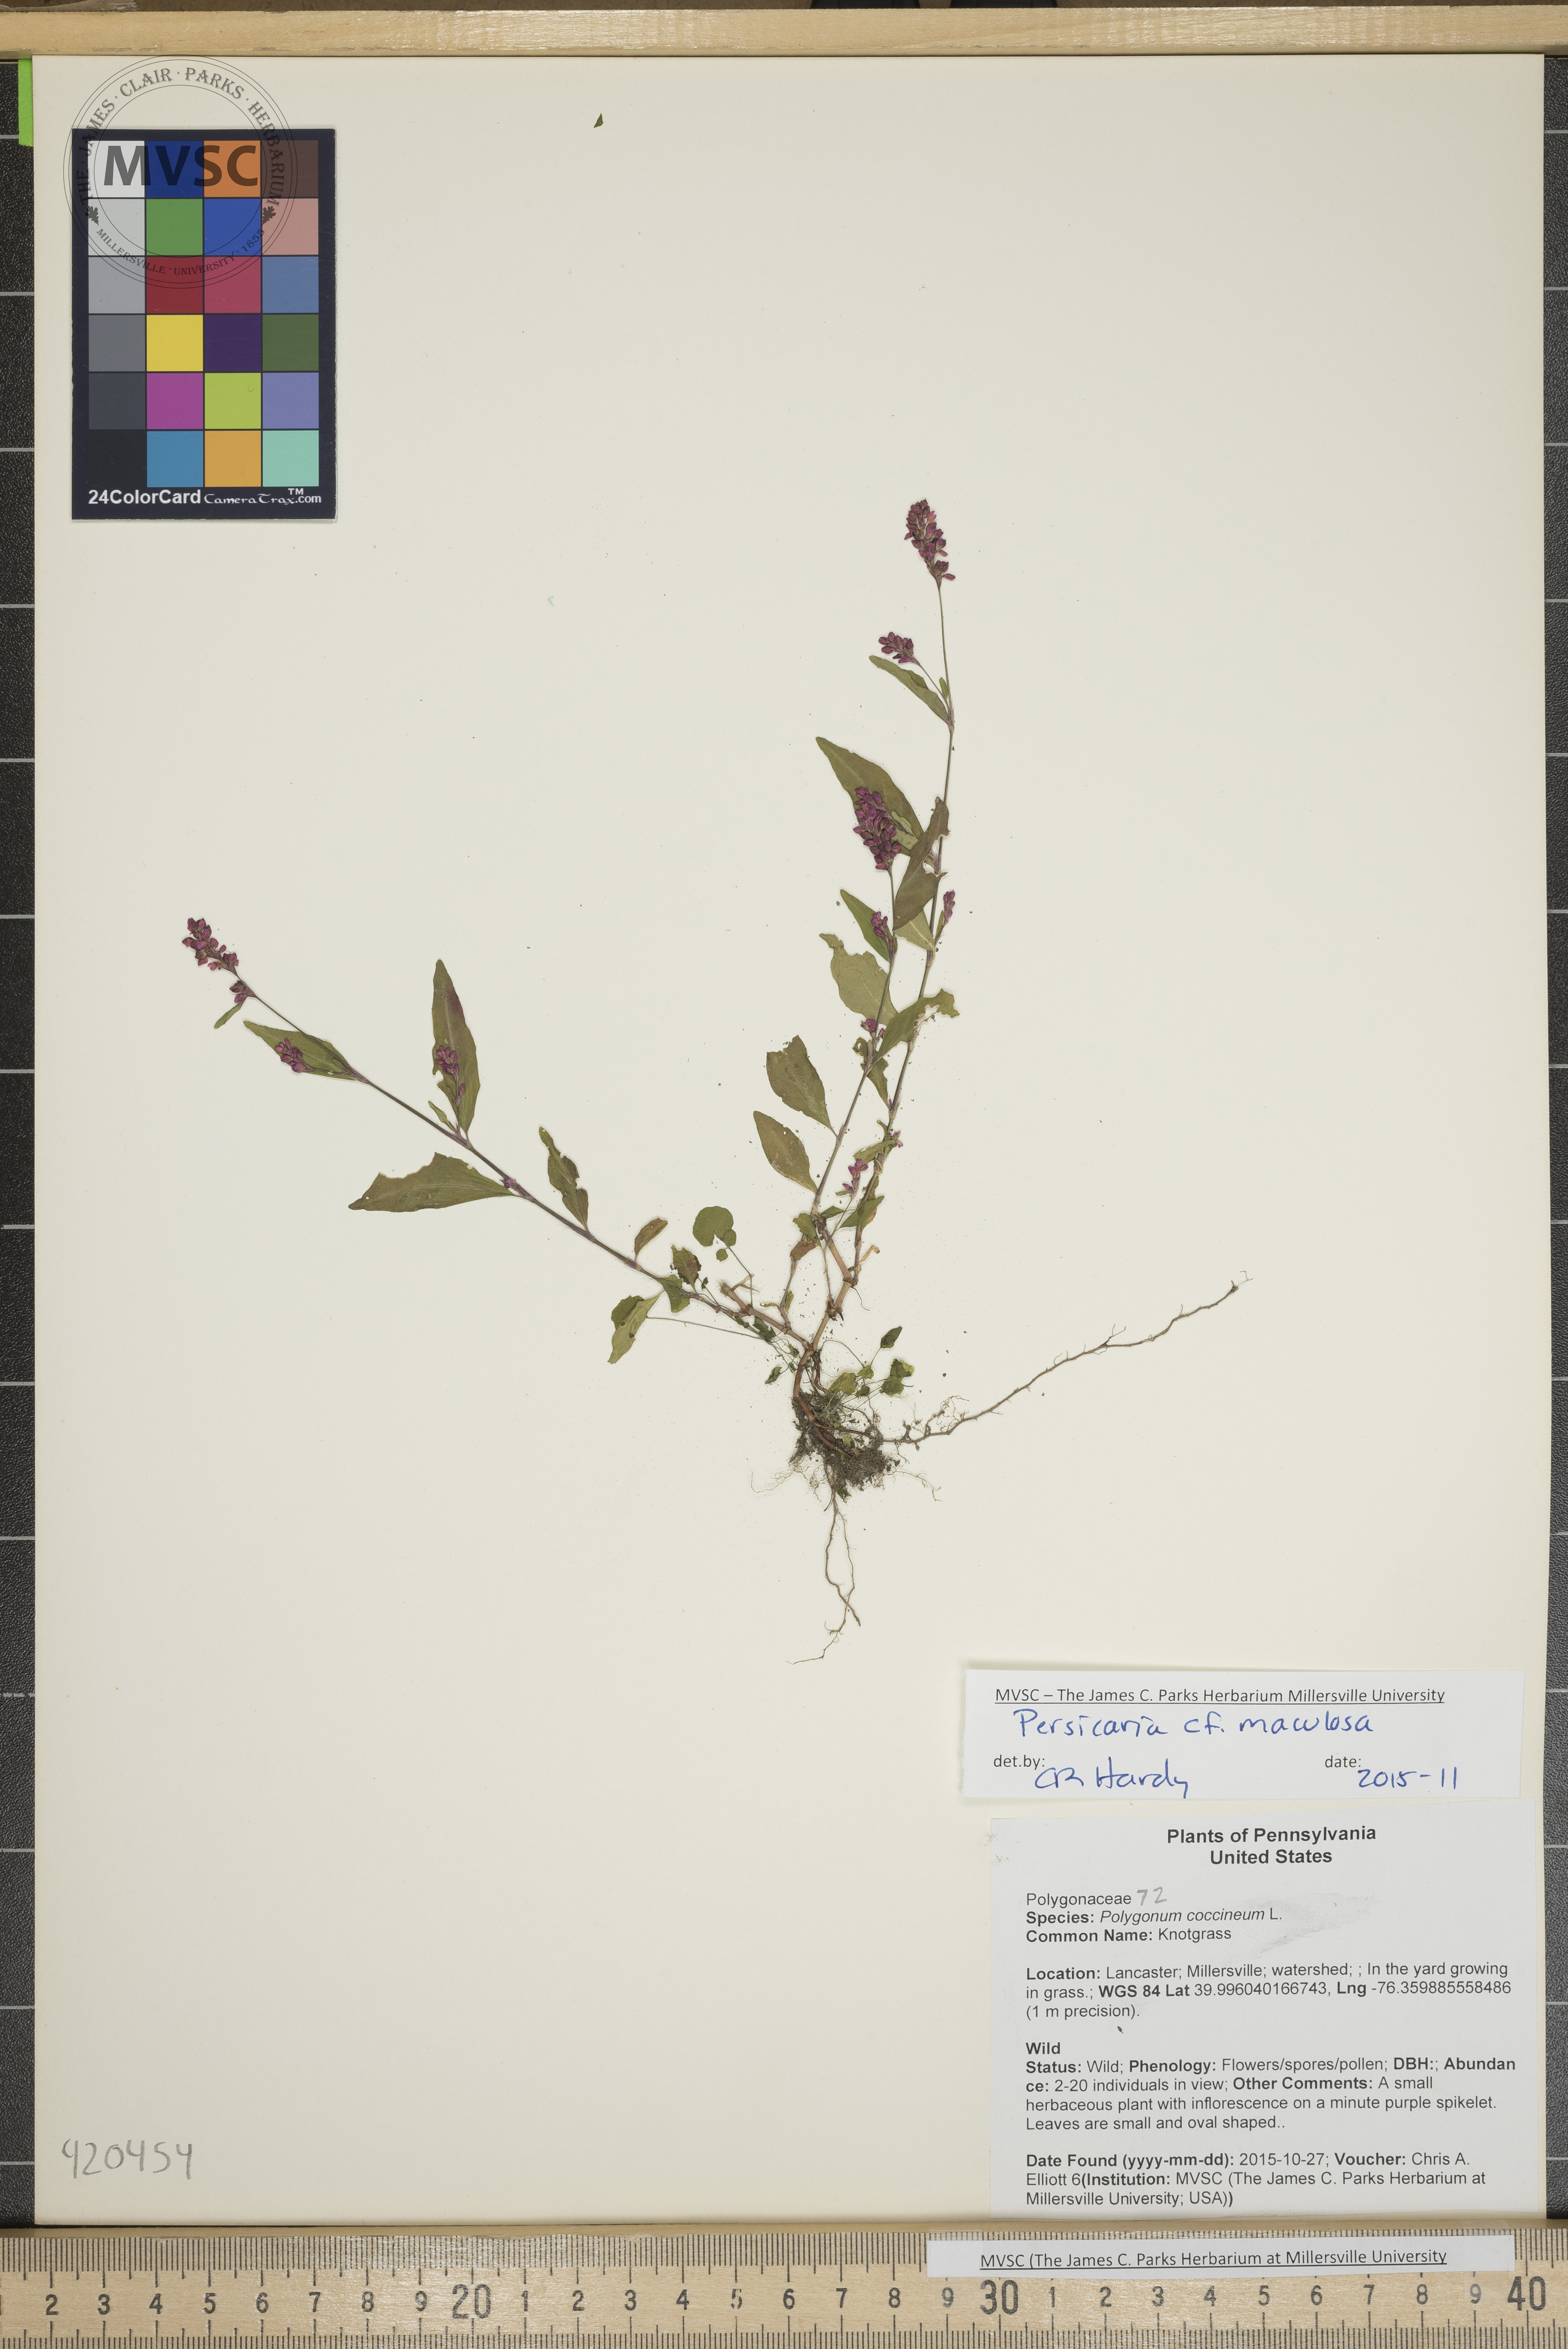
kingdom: Plantae
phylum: Tracheophyta
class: Magnoliopsida
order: Caryophyllales
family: Polygonaceae
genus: Persicaria
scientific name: Persicaria maculosa
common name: Smartweed
